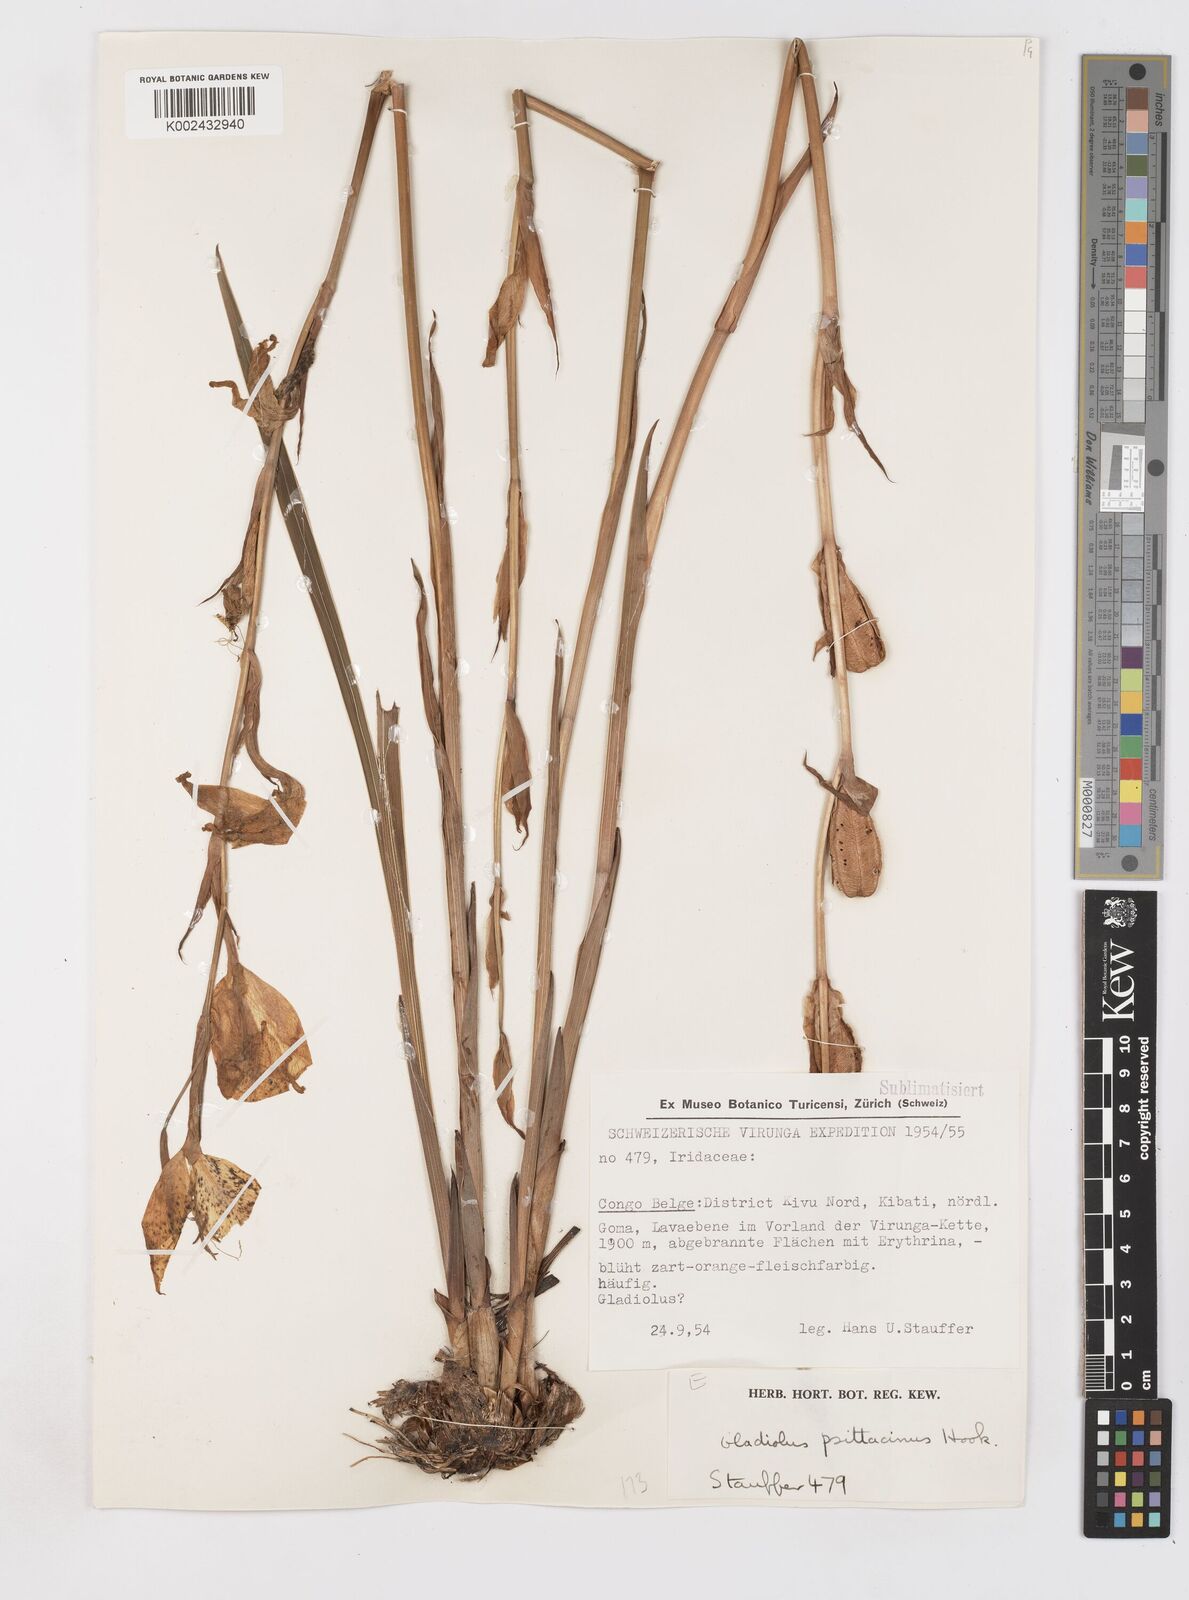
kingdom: Plantae
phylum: Tracheophyta
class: Liliopsida
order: Asparagales
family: Iridaceae
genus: Gladiolus
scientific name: Gladiolus dalenii
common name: Cornflag
